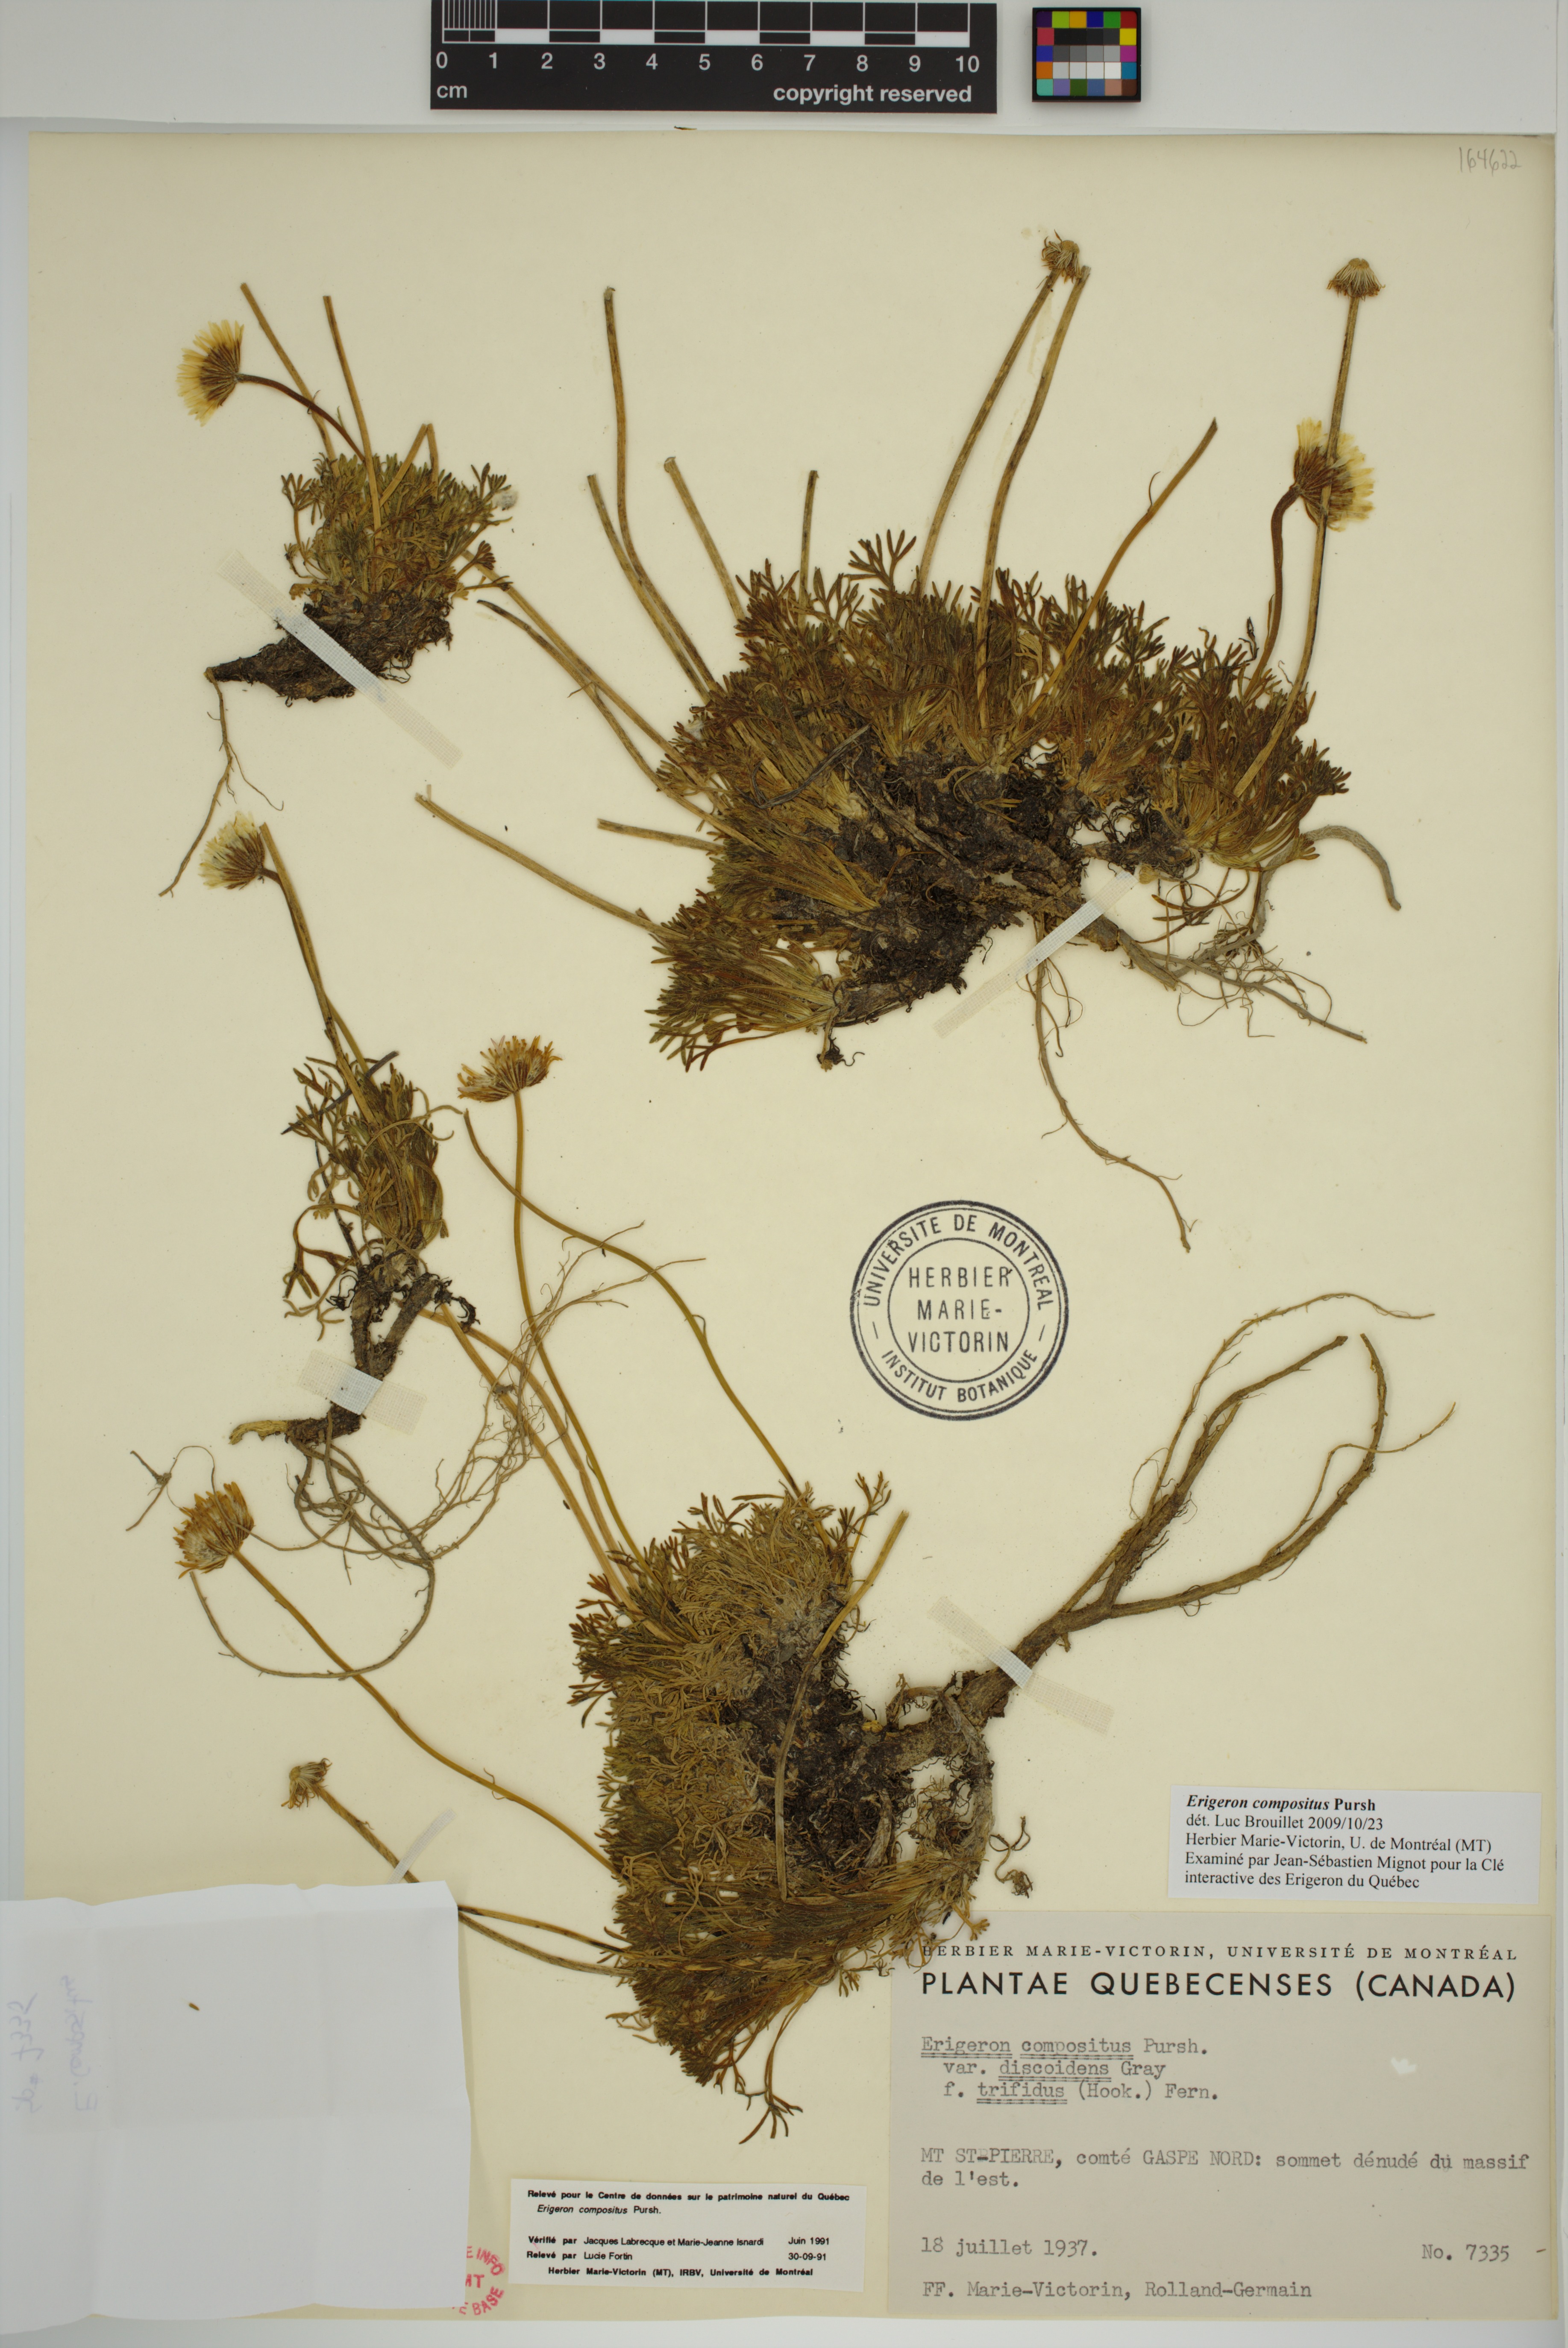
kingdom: Plantae
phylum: Tracheophyta
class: Magnoliopsida
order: Asterales
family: Asteraceae
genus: Erigeron
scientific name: Erigeron compositus
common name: Dwarf mountain fleabane
